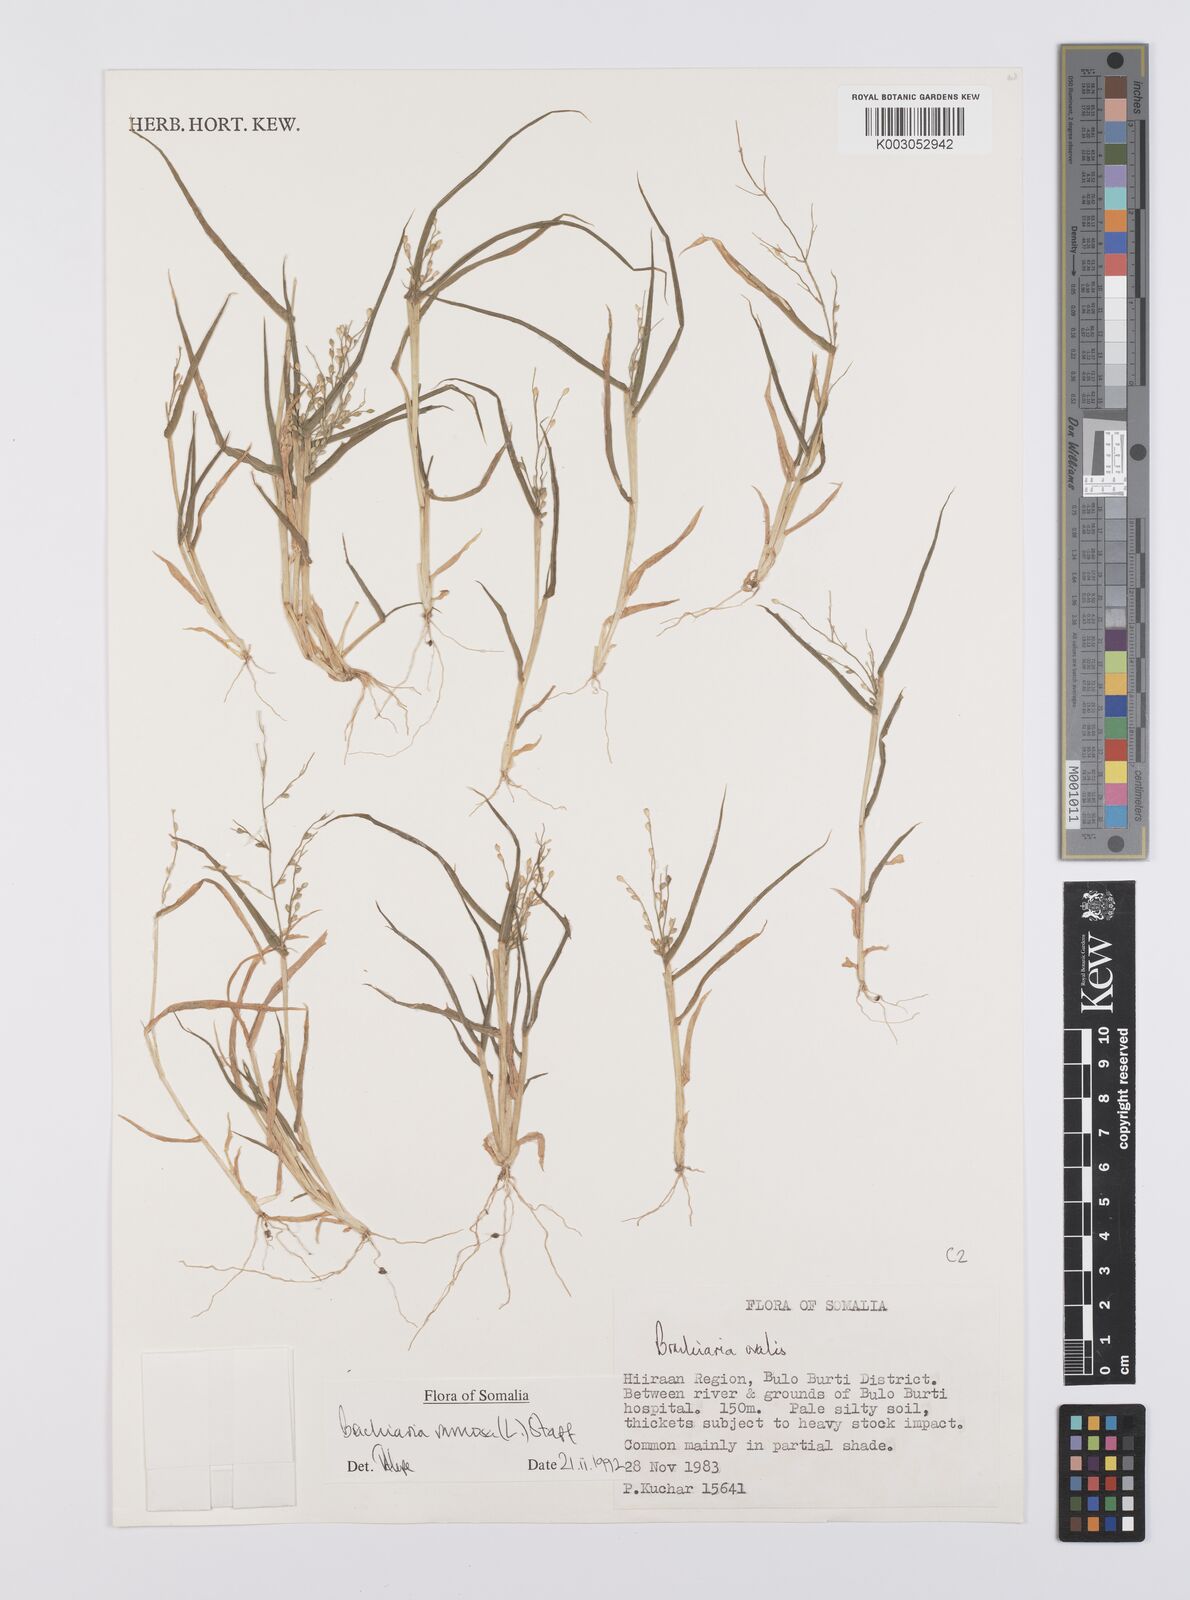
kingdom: Plantae
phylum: Tracheophyta
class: Liliopsida
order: Poales
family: Poaceae
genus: Urochloa
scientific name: Urochloa ramosa
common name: Browntop millet
